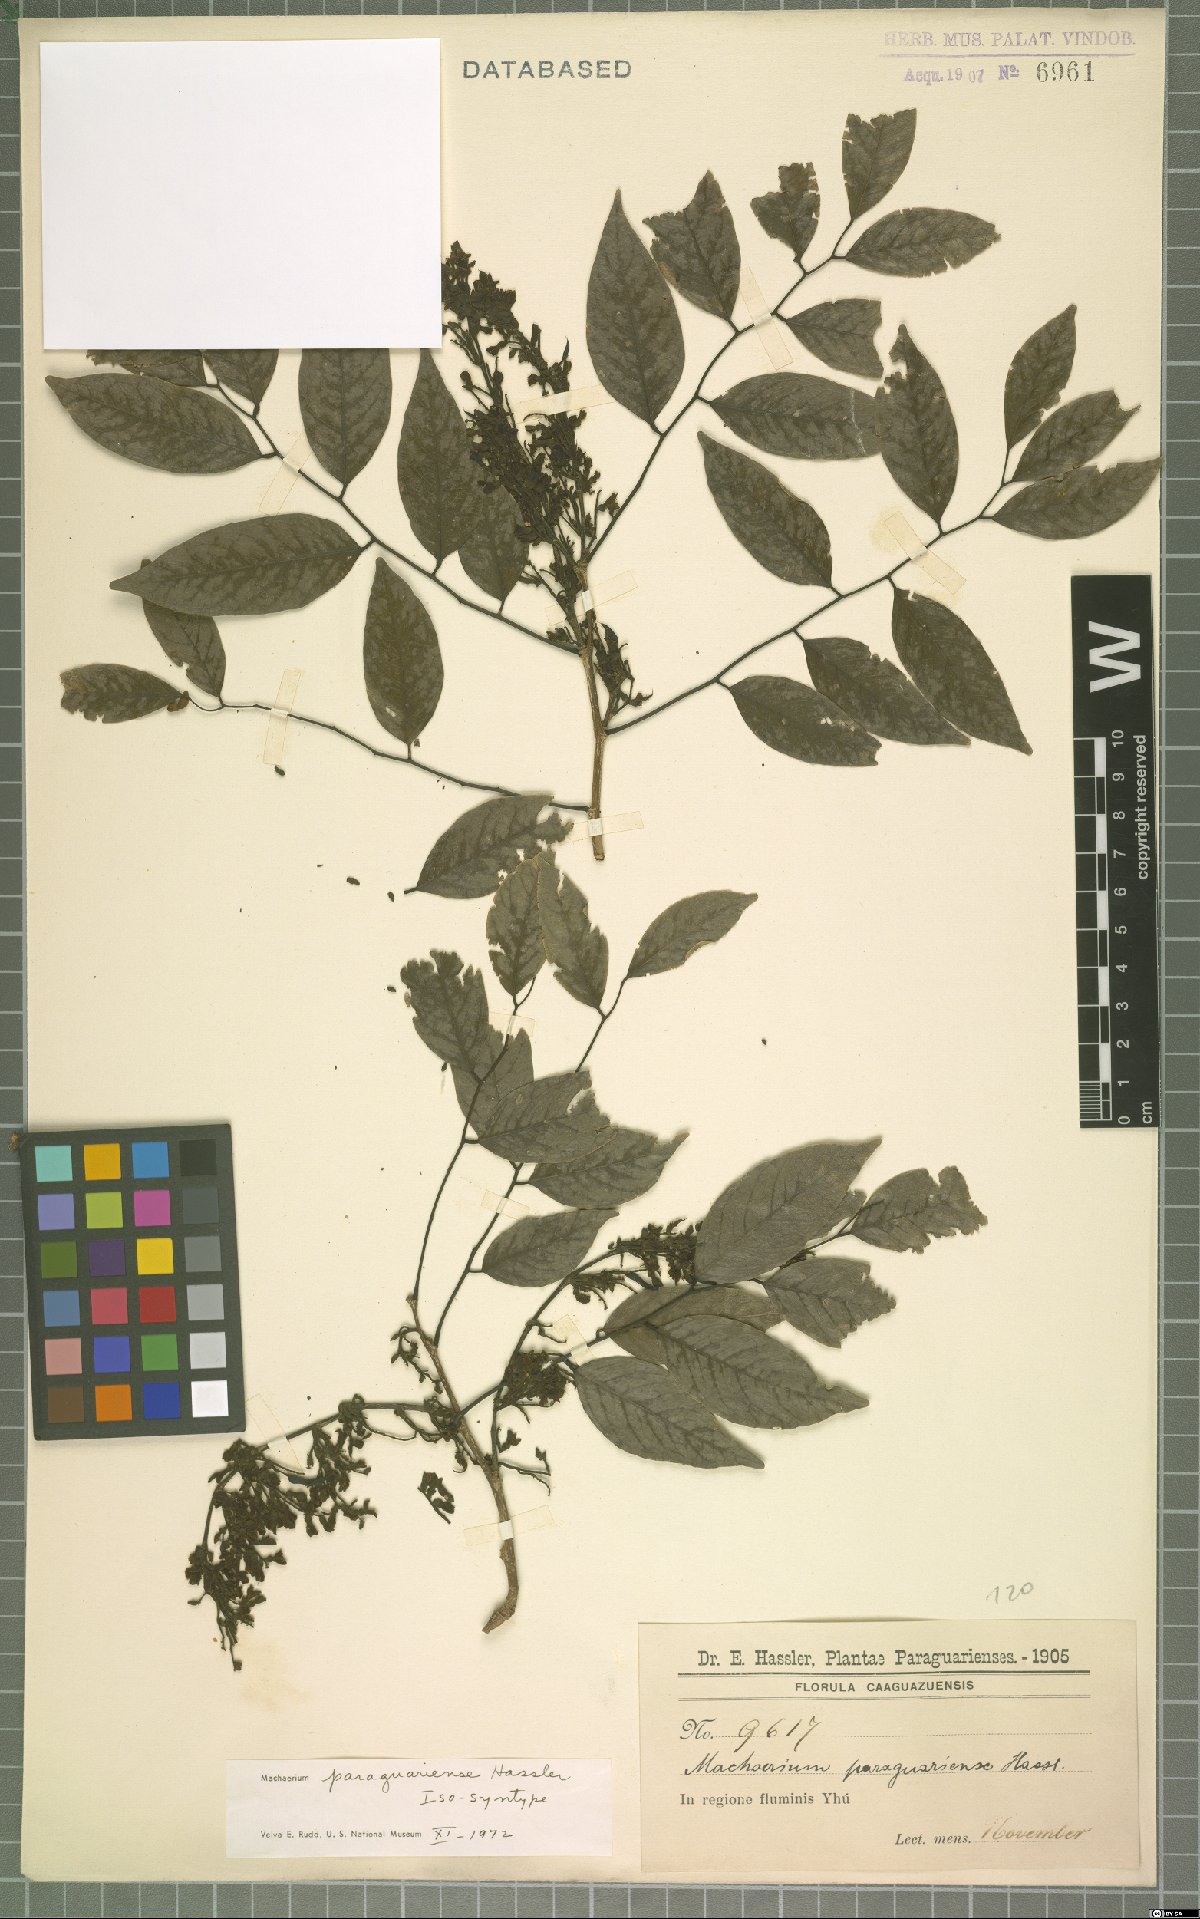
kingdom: Plantae
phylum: Tracheophyta
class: Magnoliopsida
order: Fabales
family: Fabaceae
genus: Machaerium
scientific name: Machaerium oblongifolium
